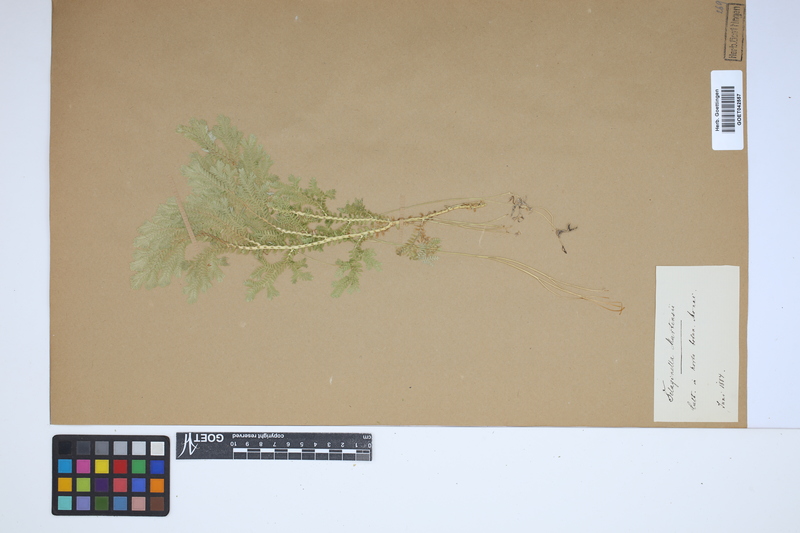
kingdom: Plantae
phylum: Tracheophyta
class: Lycopodiopsida
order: Selaginellales
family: Selaginellaceae
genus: Selaginella
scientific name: Selaginella martensii
